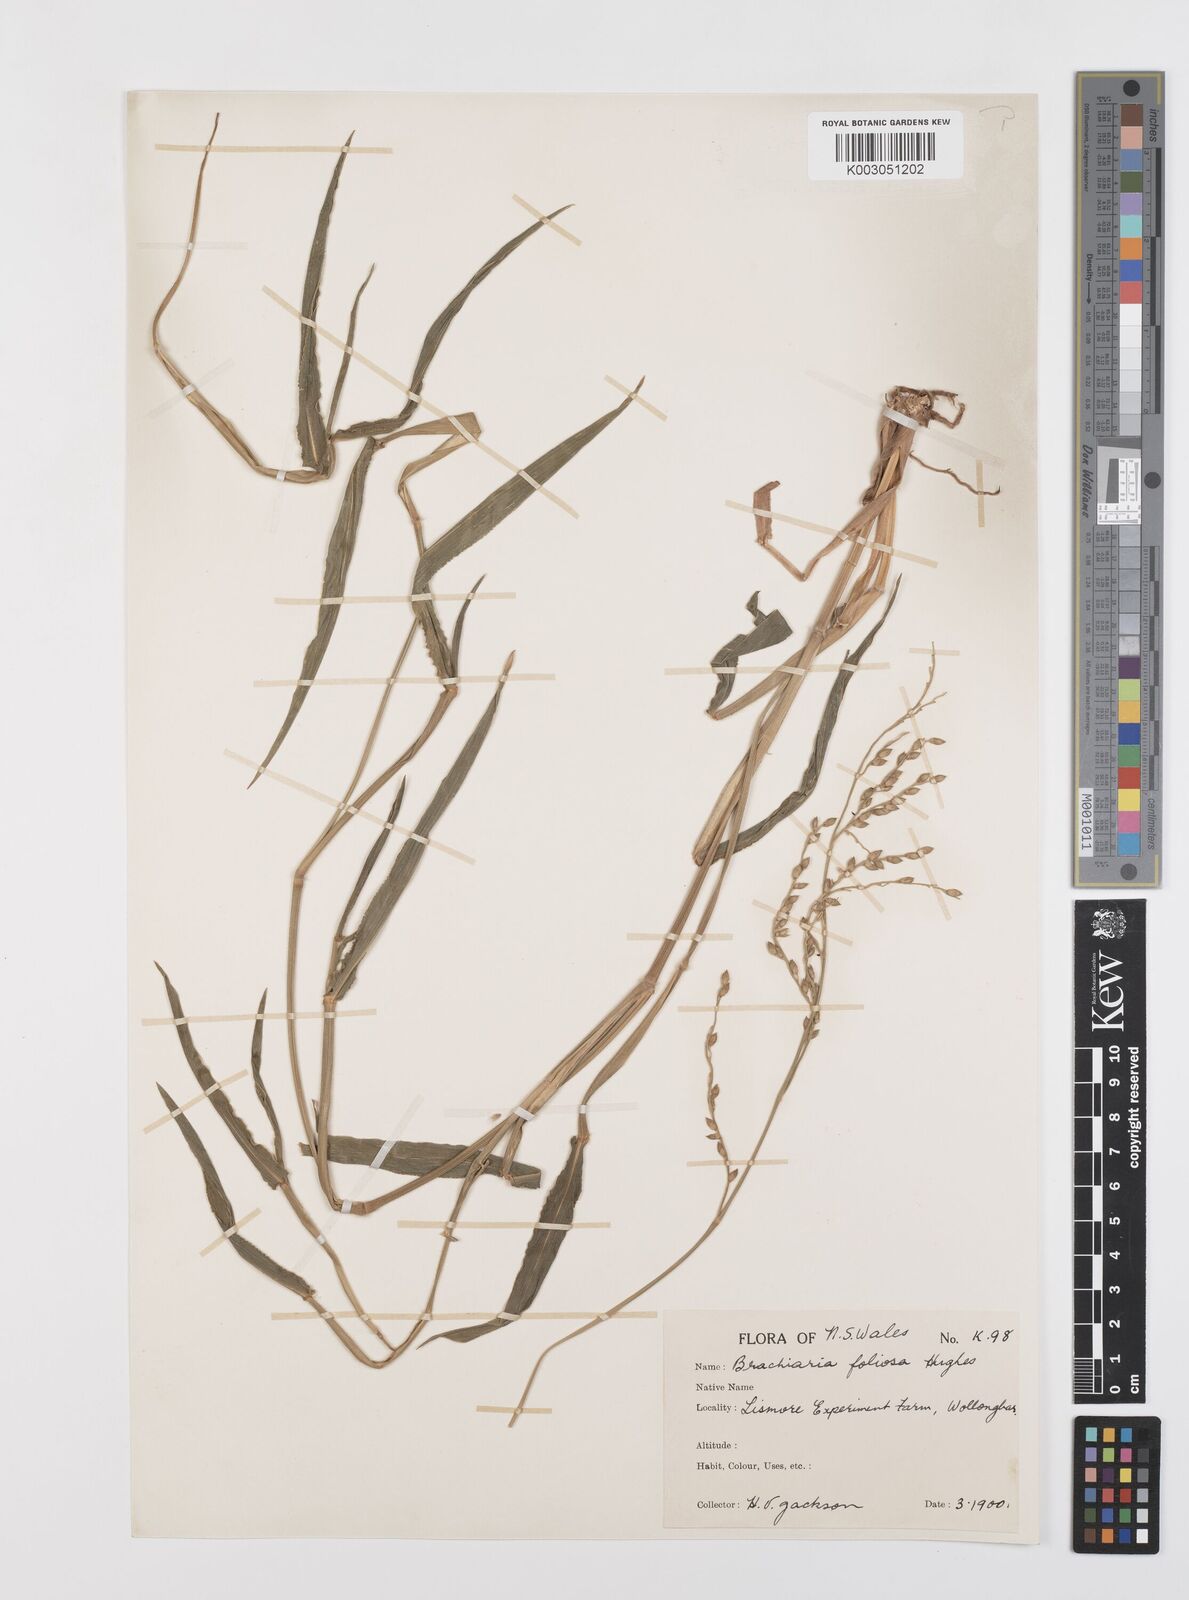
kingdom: Plantae
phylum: Tracheophyta
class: Liliopsida
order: Poales
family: Poaceae
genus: Urochloa
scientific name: Urochloa foliosa
